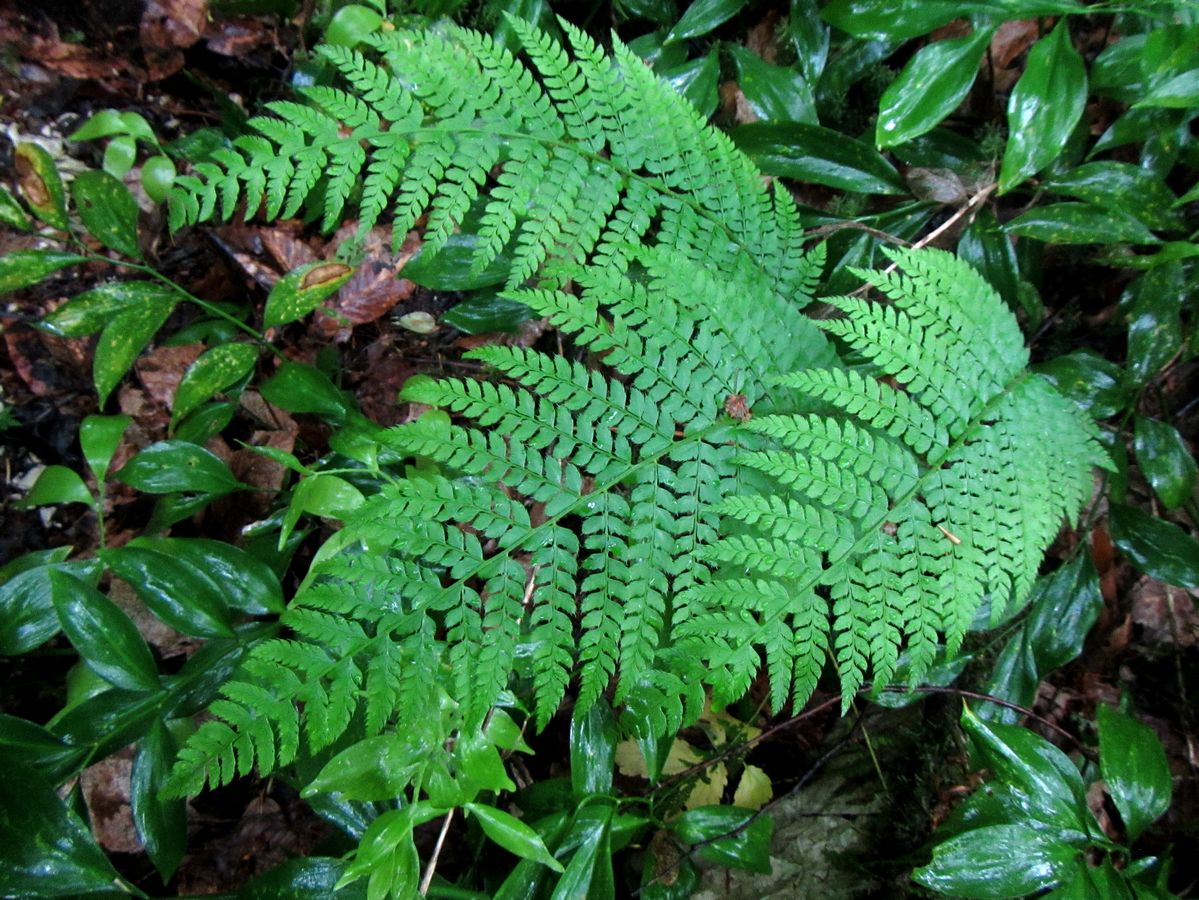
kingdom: Plantae
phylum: Tracheophyta
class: Polypodiopsida
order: Polypodiales
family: Dryopteridaceae
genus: Polystichum
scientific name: Polystichum braunii
